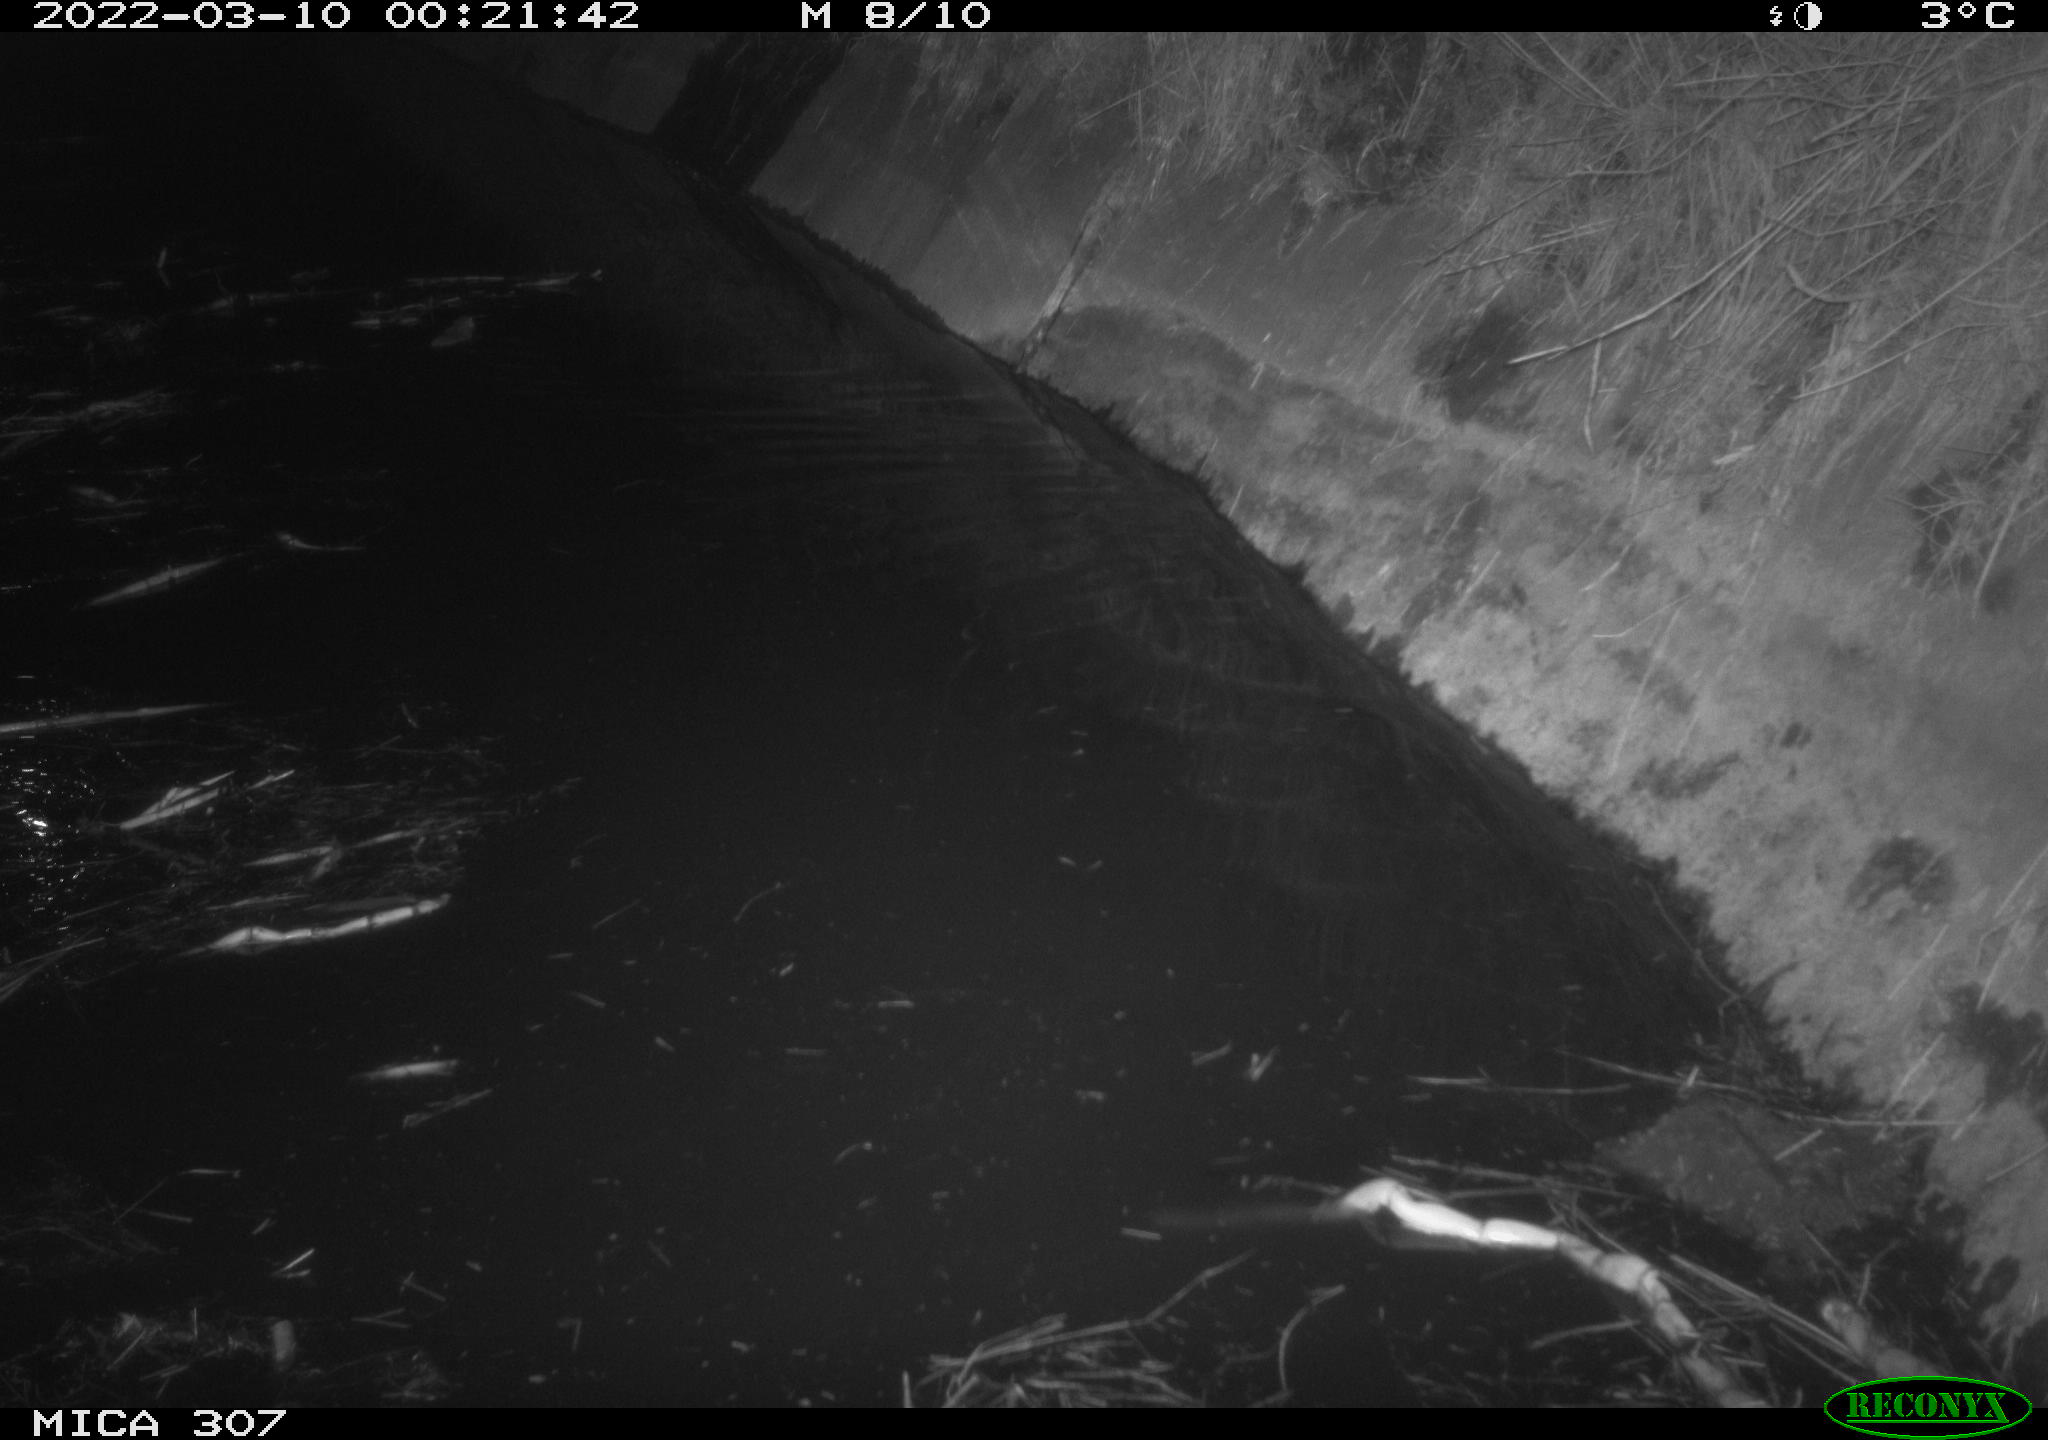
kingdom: Animalia
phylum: Chordata
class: Mammalia
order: Rodentia
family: Muridae
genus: Rattus
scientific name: Rattus norvegicus
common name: Brown rat
